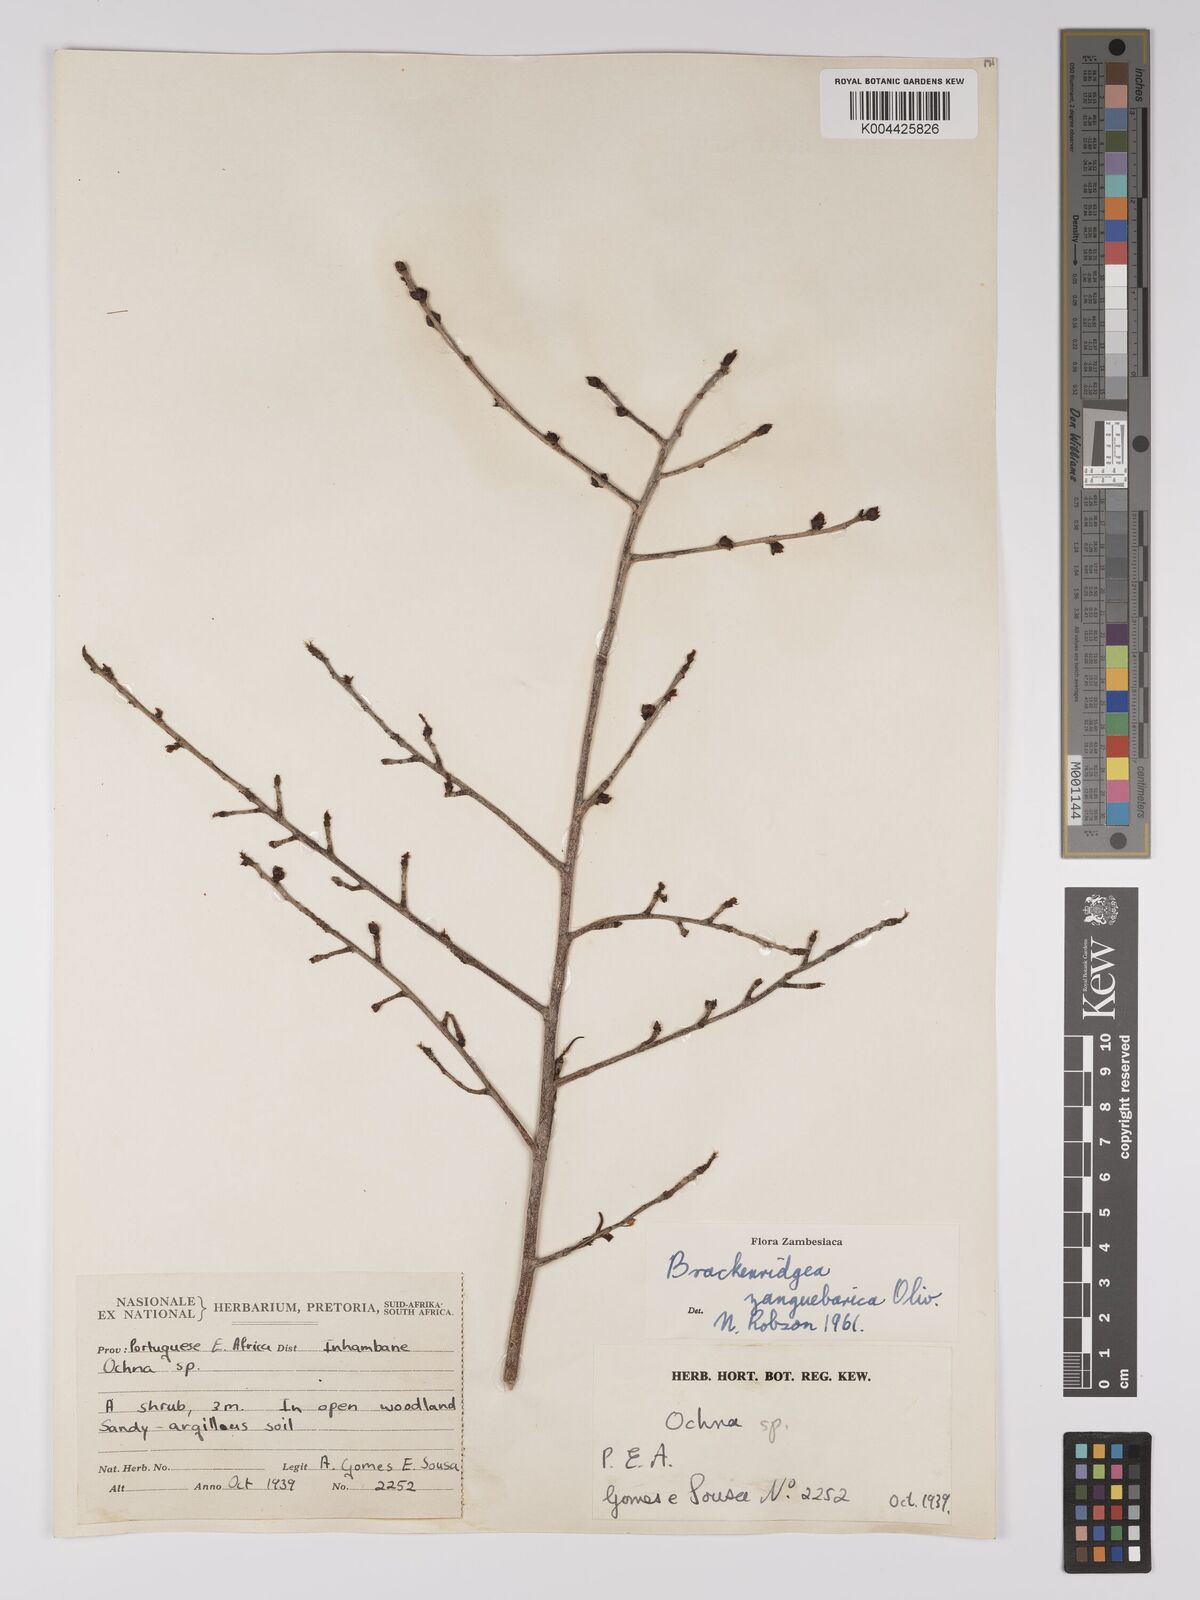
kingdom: Plantae
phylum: Tracheophyta
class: Magnoliopsida
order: Malpighiales
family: Ochnaceae
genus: Brackenridgea
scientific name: Brackenridgea zanguebarica
